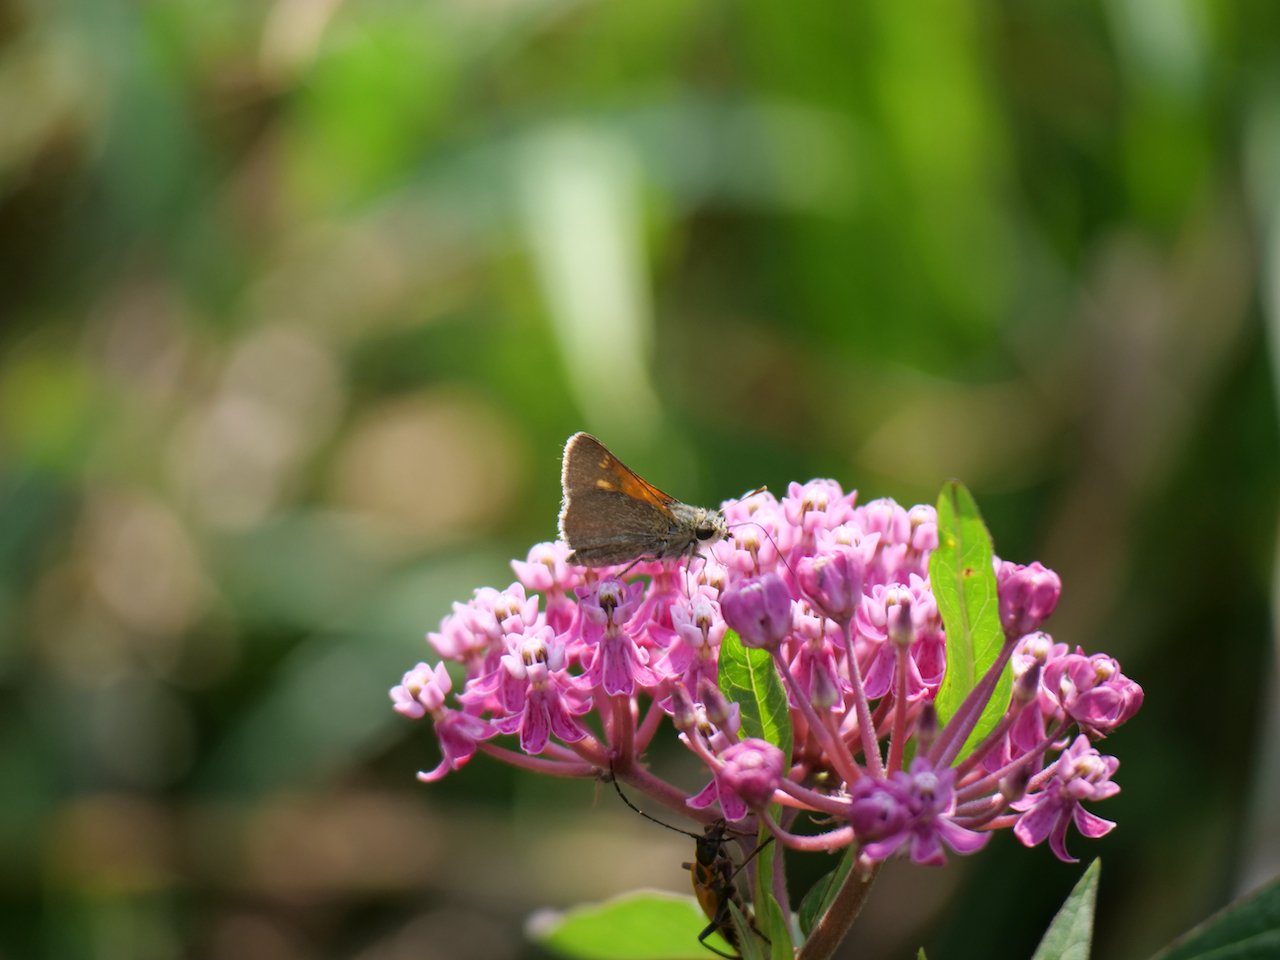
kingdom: Animalia
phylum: Arthropoda
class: Insecta
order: Lepidoptera
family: Hesperiidae
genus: Polites
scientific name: Polites themistocles
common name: Tawny-edged Skipper
